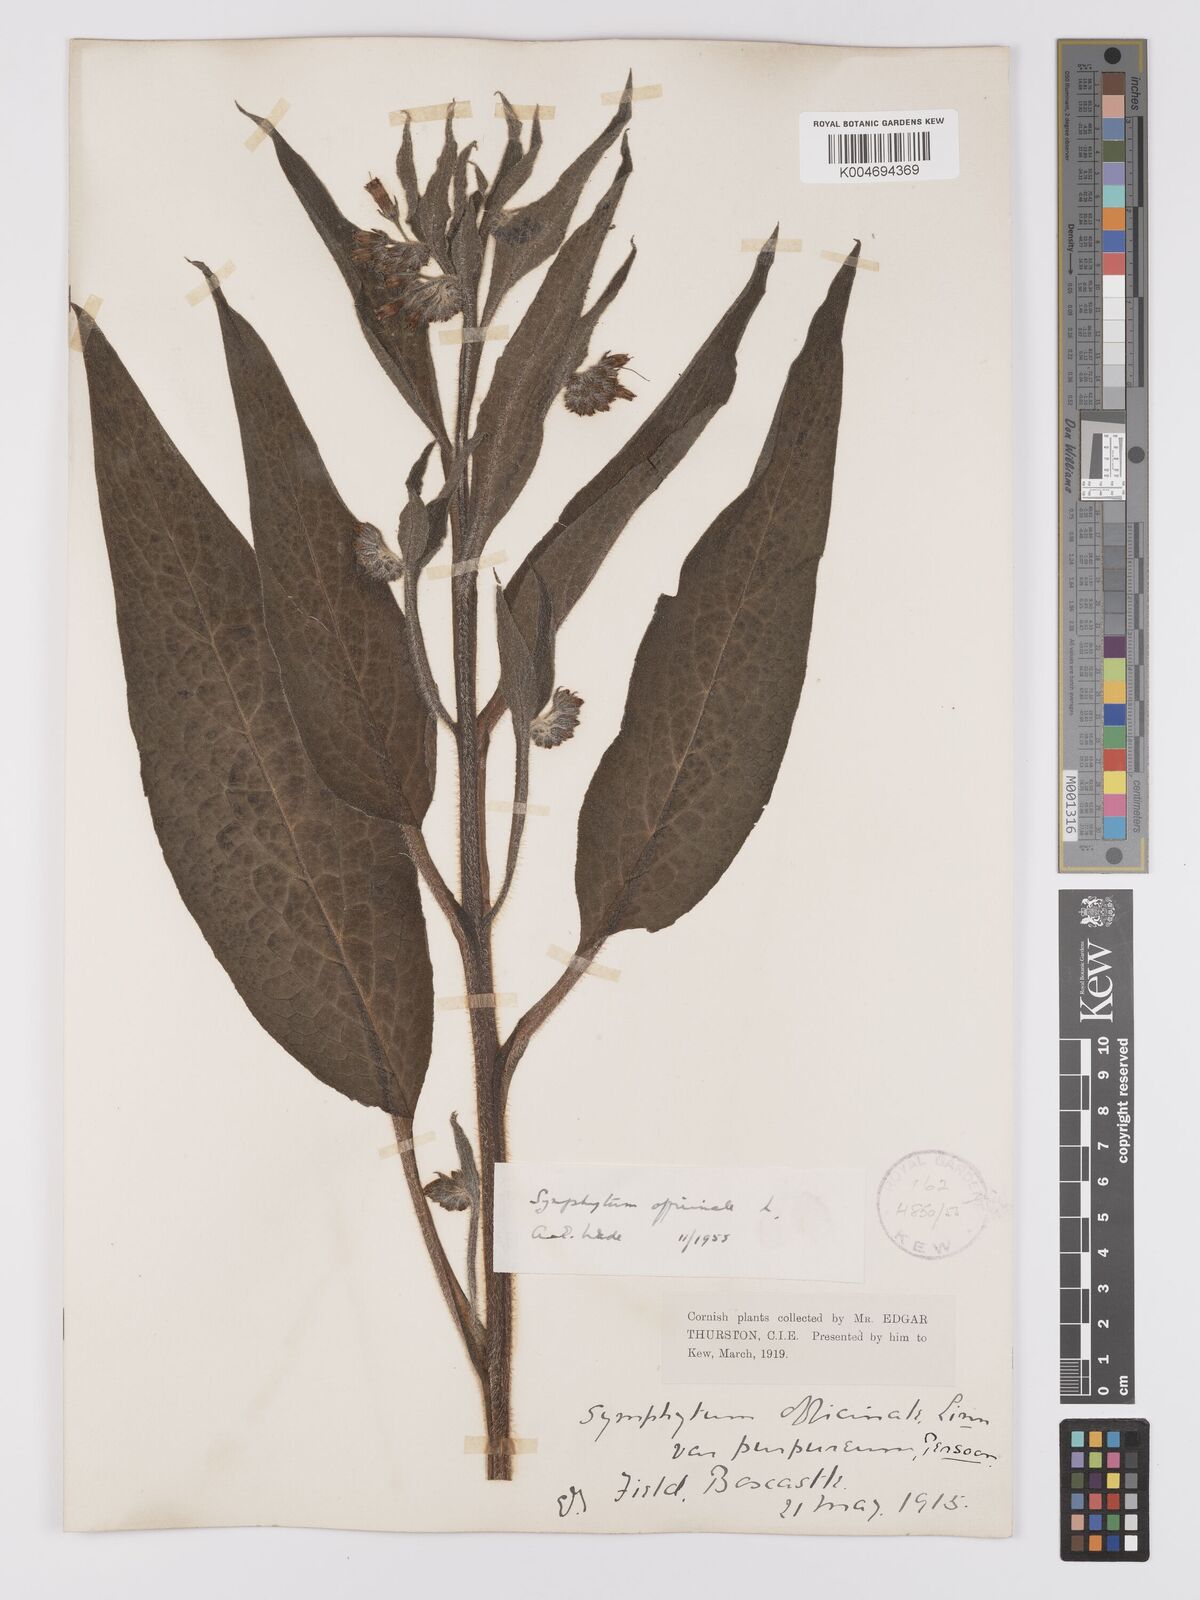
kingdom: Plantae
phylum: Tracheophyta
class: Magnoliopsida
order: Boraginales
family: Boraginaceae
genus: Symphytum
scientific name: Symphytum officinale
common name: Common comfrey
